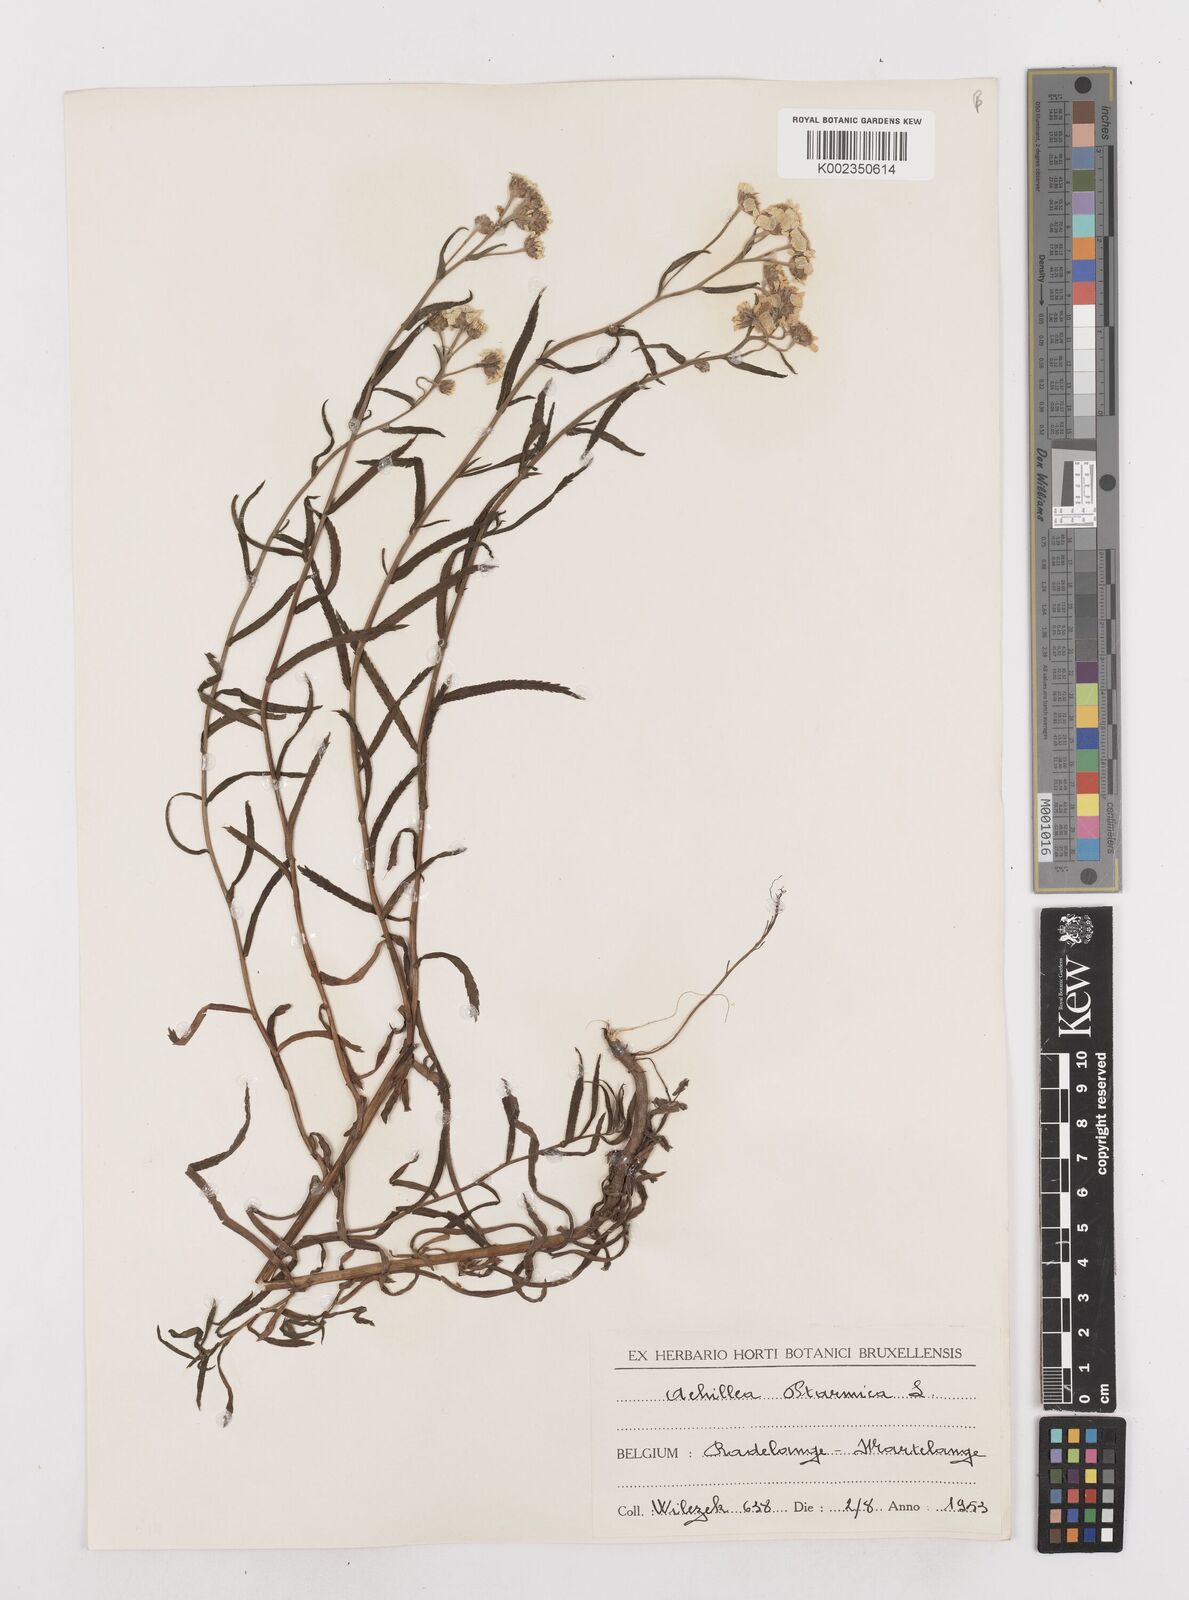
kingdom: Plantae
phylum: Tracheophyta
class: Magnoliopsida
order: Asterales
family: Asteraceae
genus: Achillea
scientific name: Achillea ptarmica
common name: Sneezeweed
